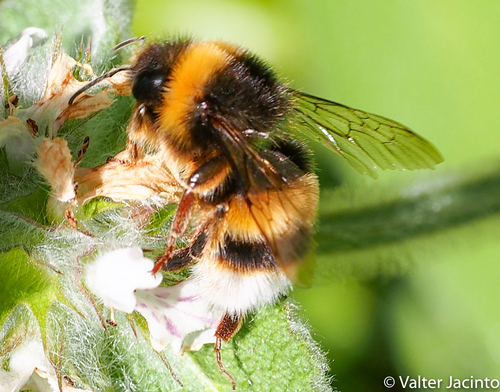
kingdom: Animalia
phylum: Arthropoda
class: Insecta
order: Hymenoptera
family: Apidae
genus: Bombus
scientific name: Bombus terrestris
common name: Buff-tailed bumblebee
